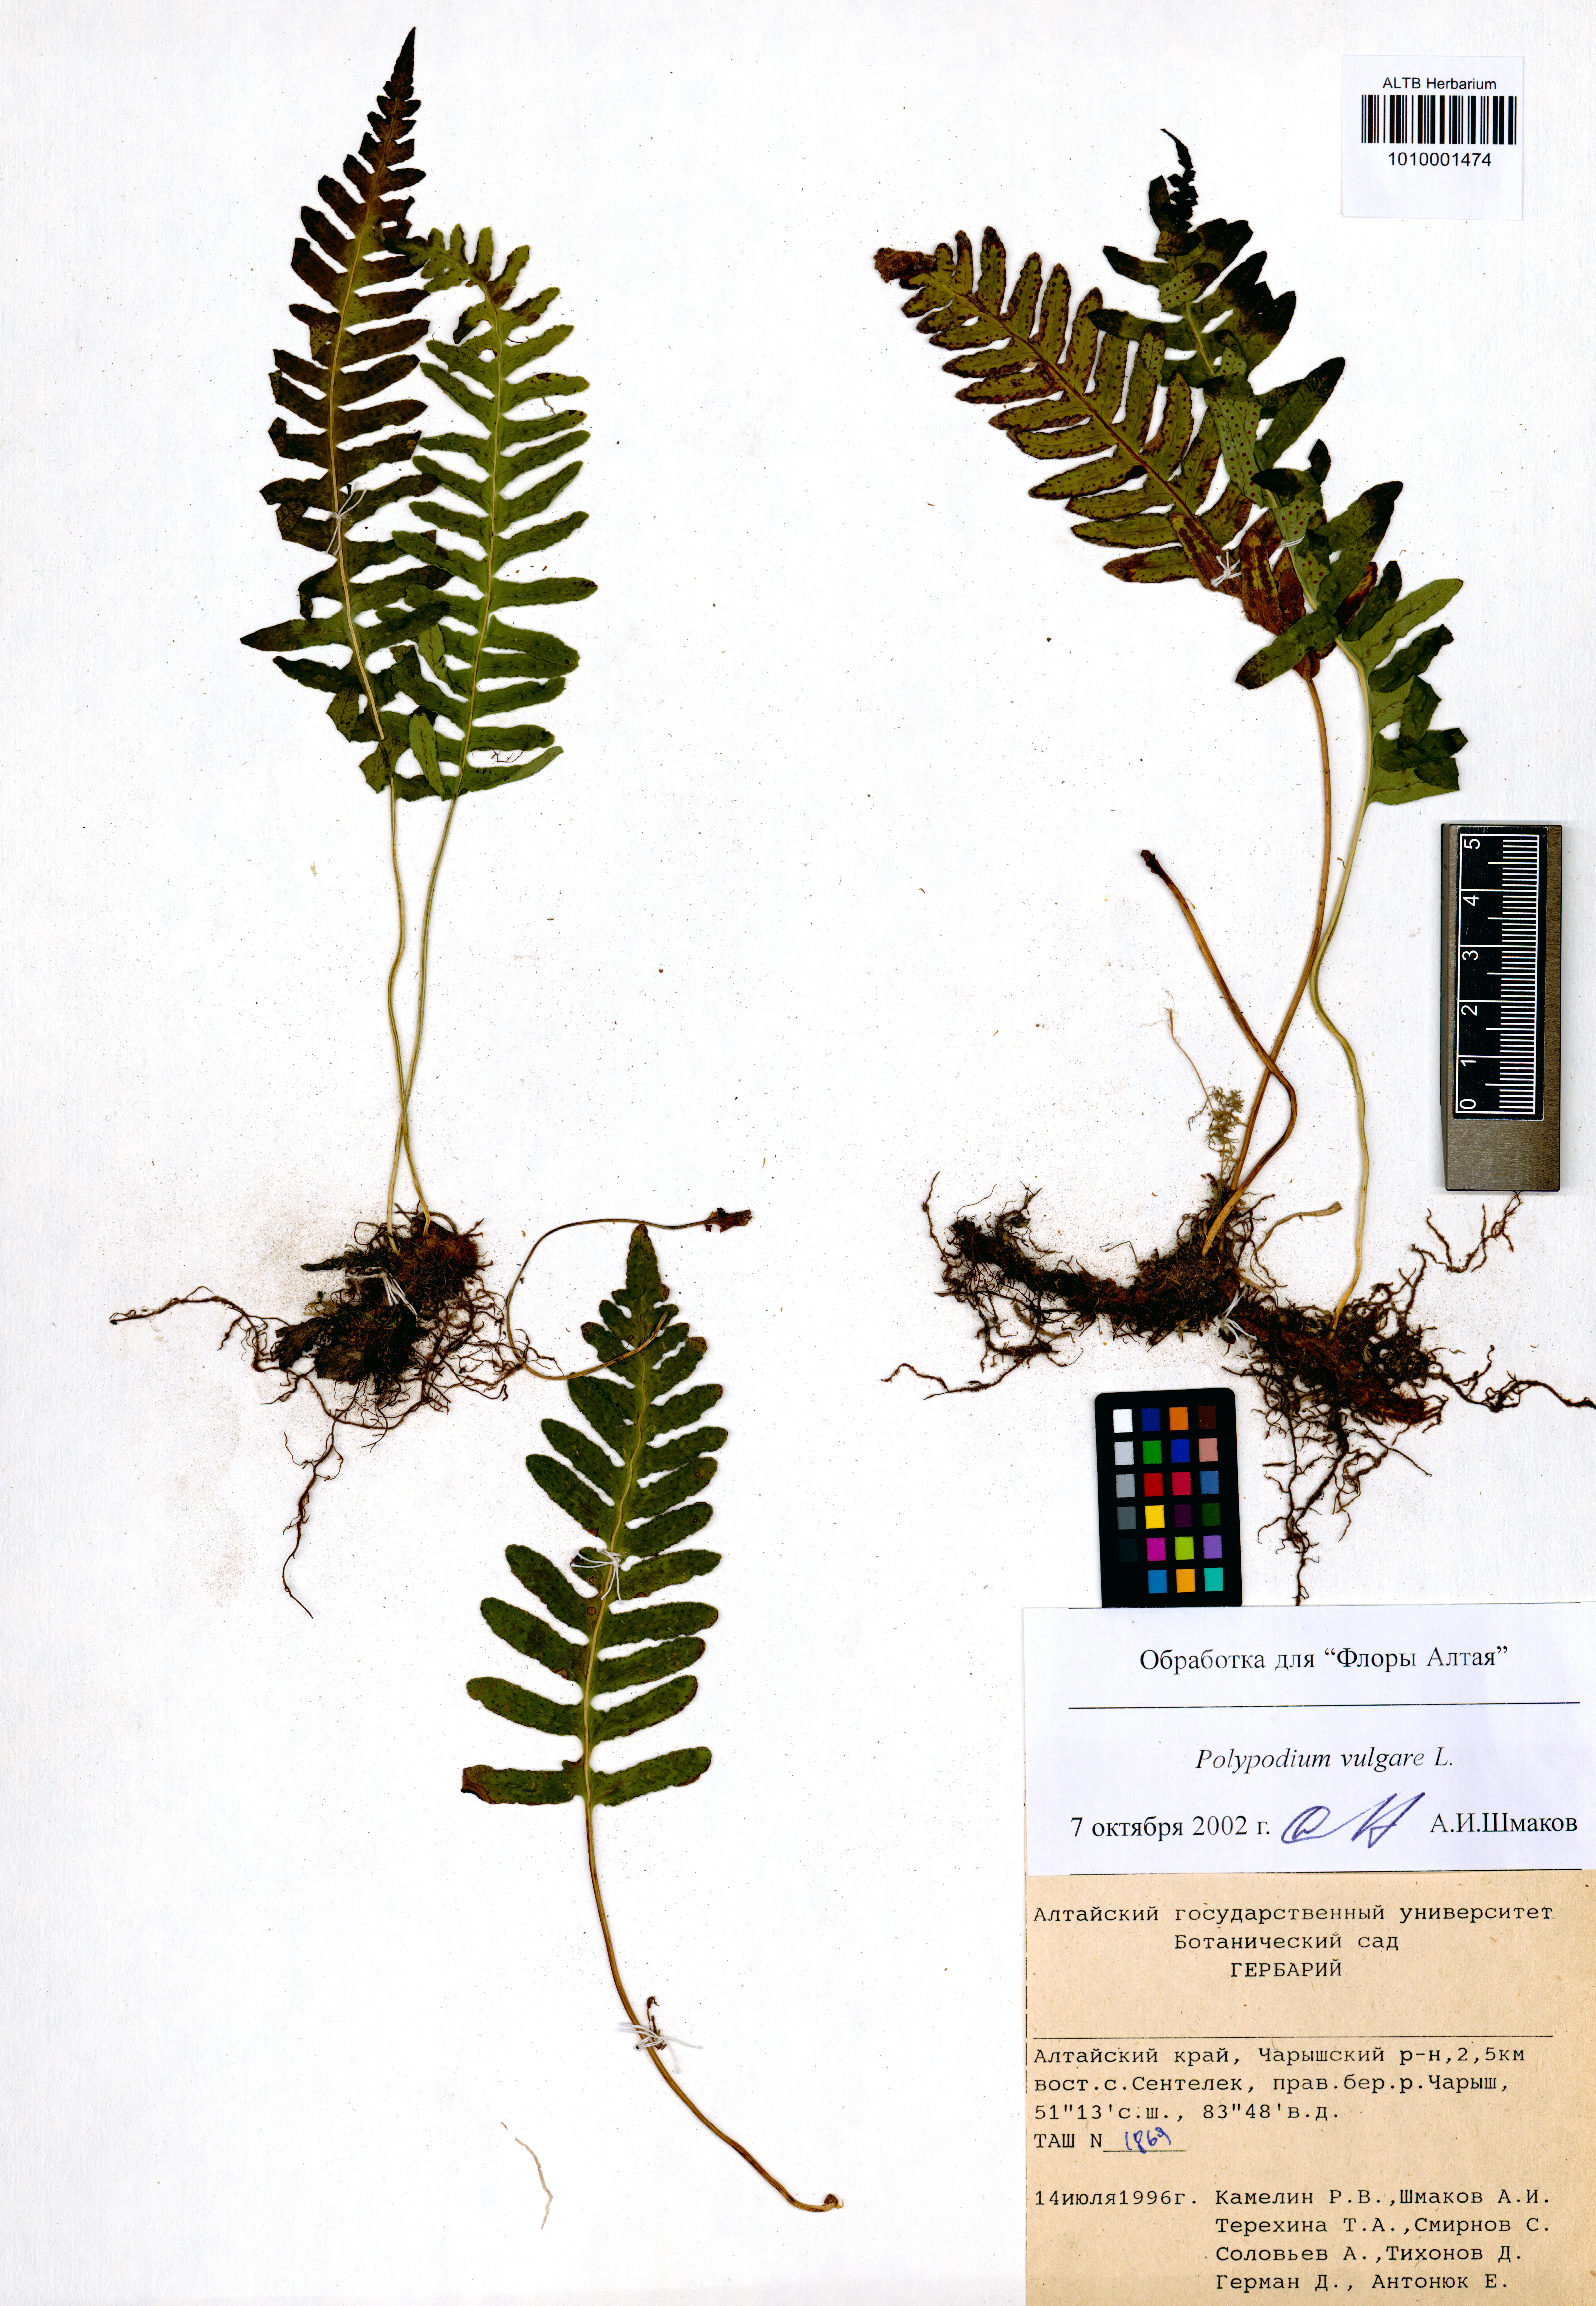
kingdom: Plantae
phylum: Tracheophyta
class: Polypodiopsida
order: Polypodiales
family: Polypodiaceae
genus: Polypodium
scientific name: Polypodium vulgare
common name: Common polypody
